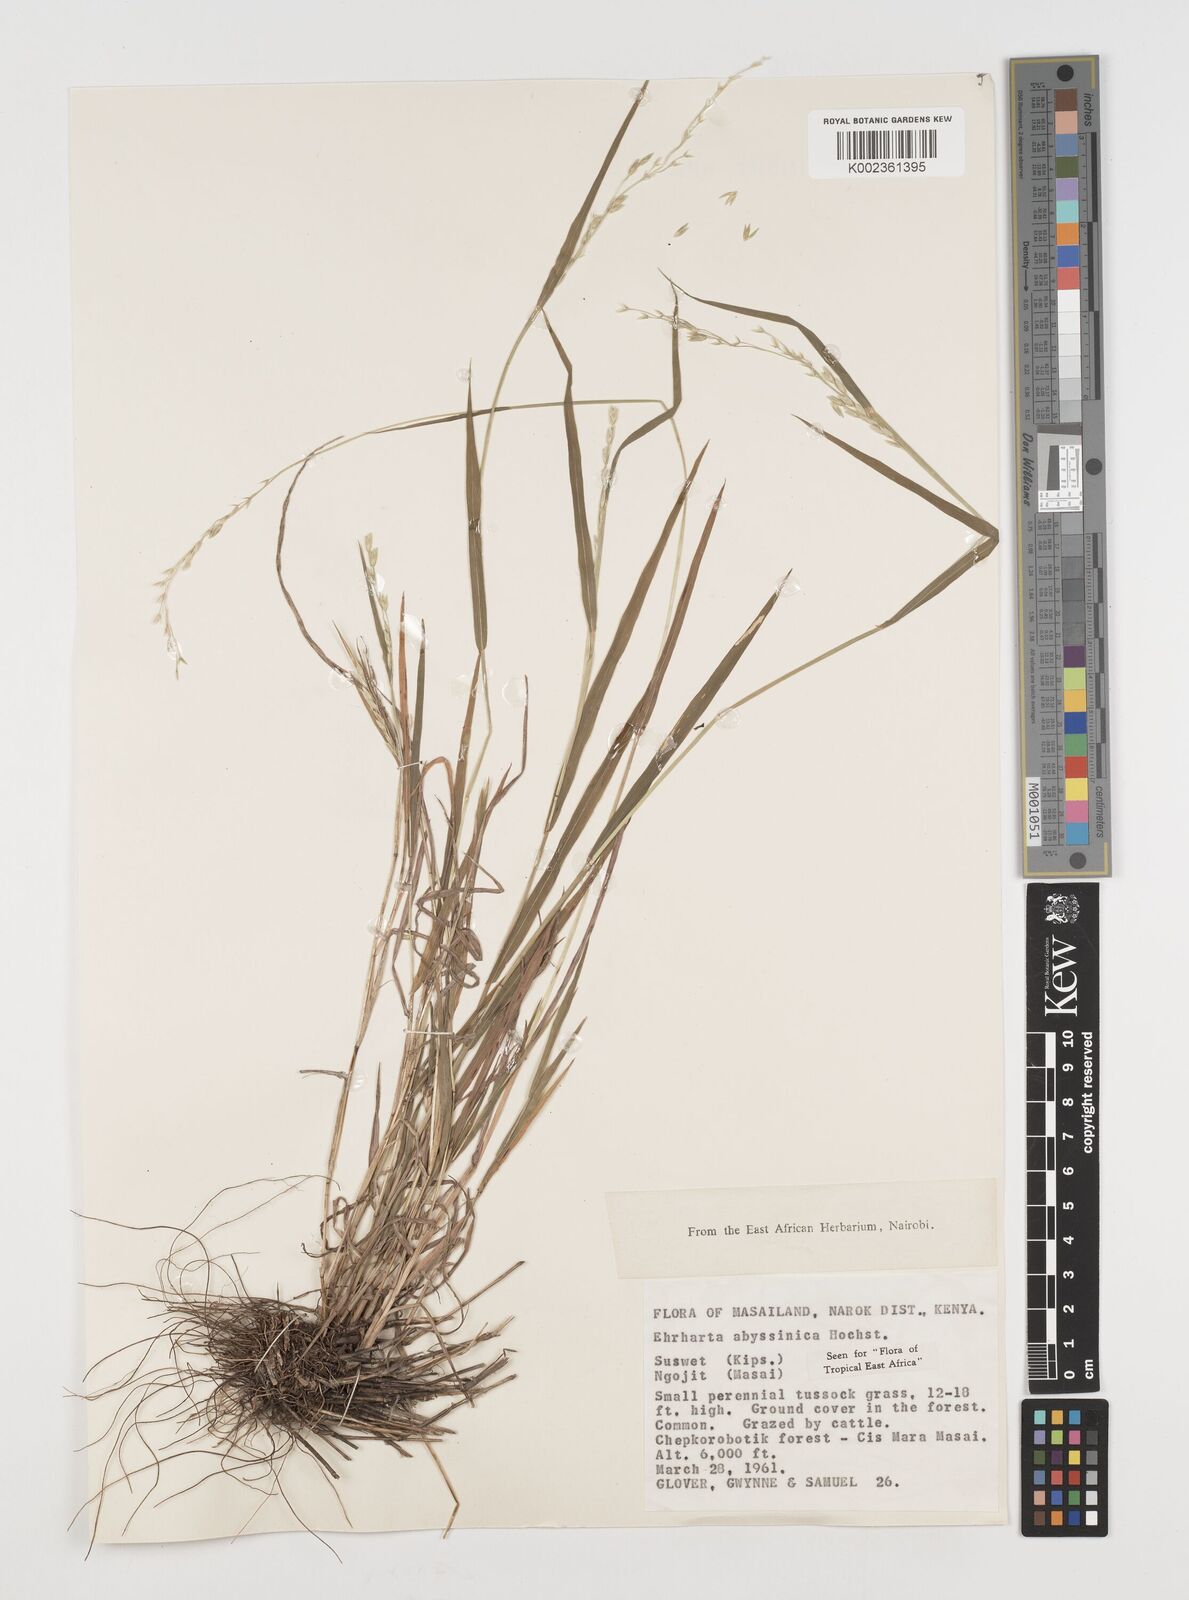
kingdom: Plantae
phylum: Tracheophyta
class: Liliopsida
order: Poales
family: Poaceae
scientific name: Poaceae
